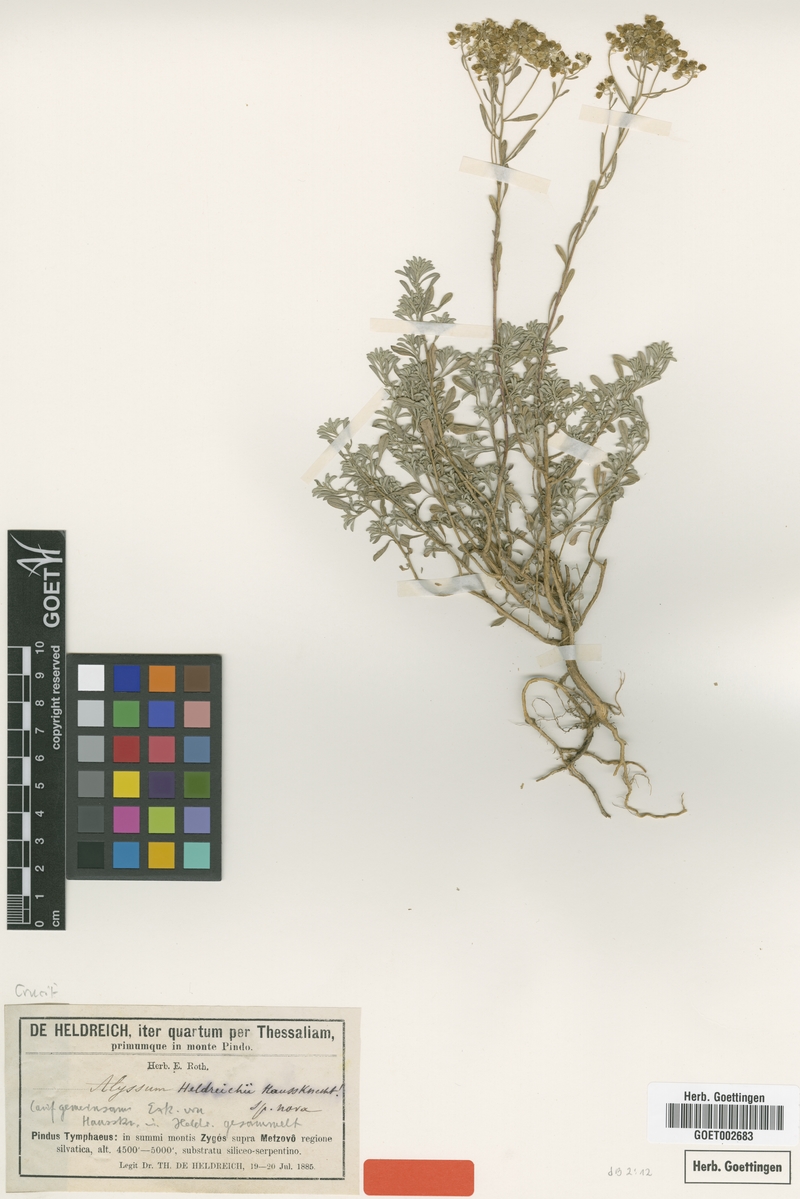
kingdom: Plantae
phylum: Tracheophyta
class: Magnoliopsida
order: Brassicales
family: Brassicaceae
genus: Odontarrhena
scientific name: Odontarrhena heldreichii
